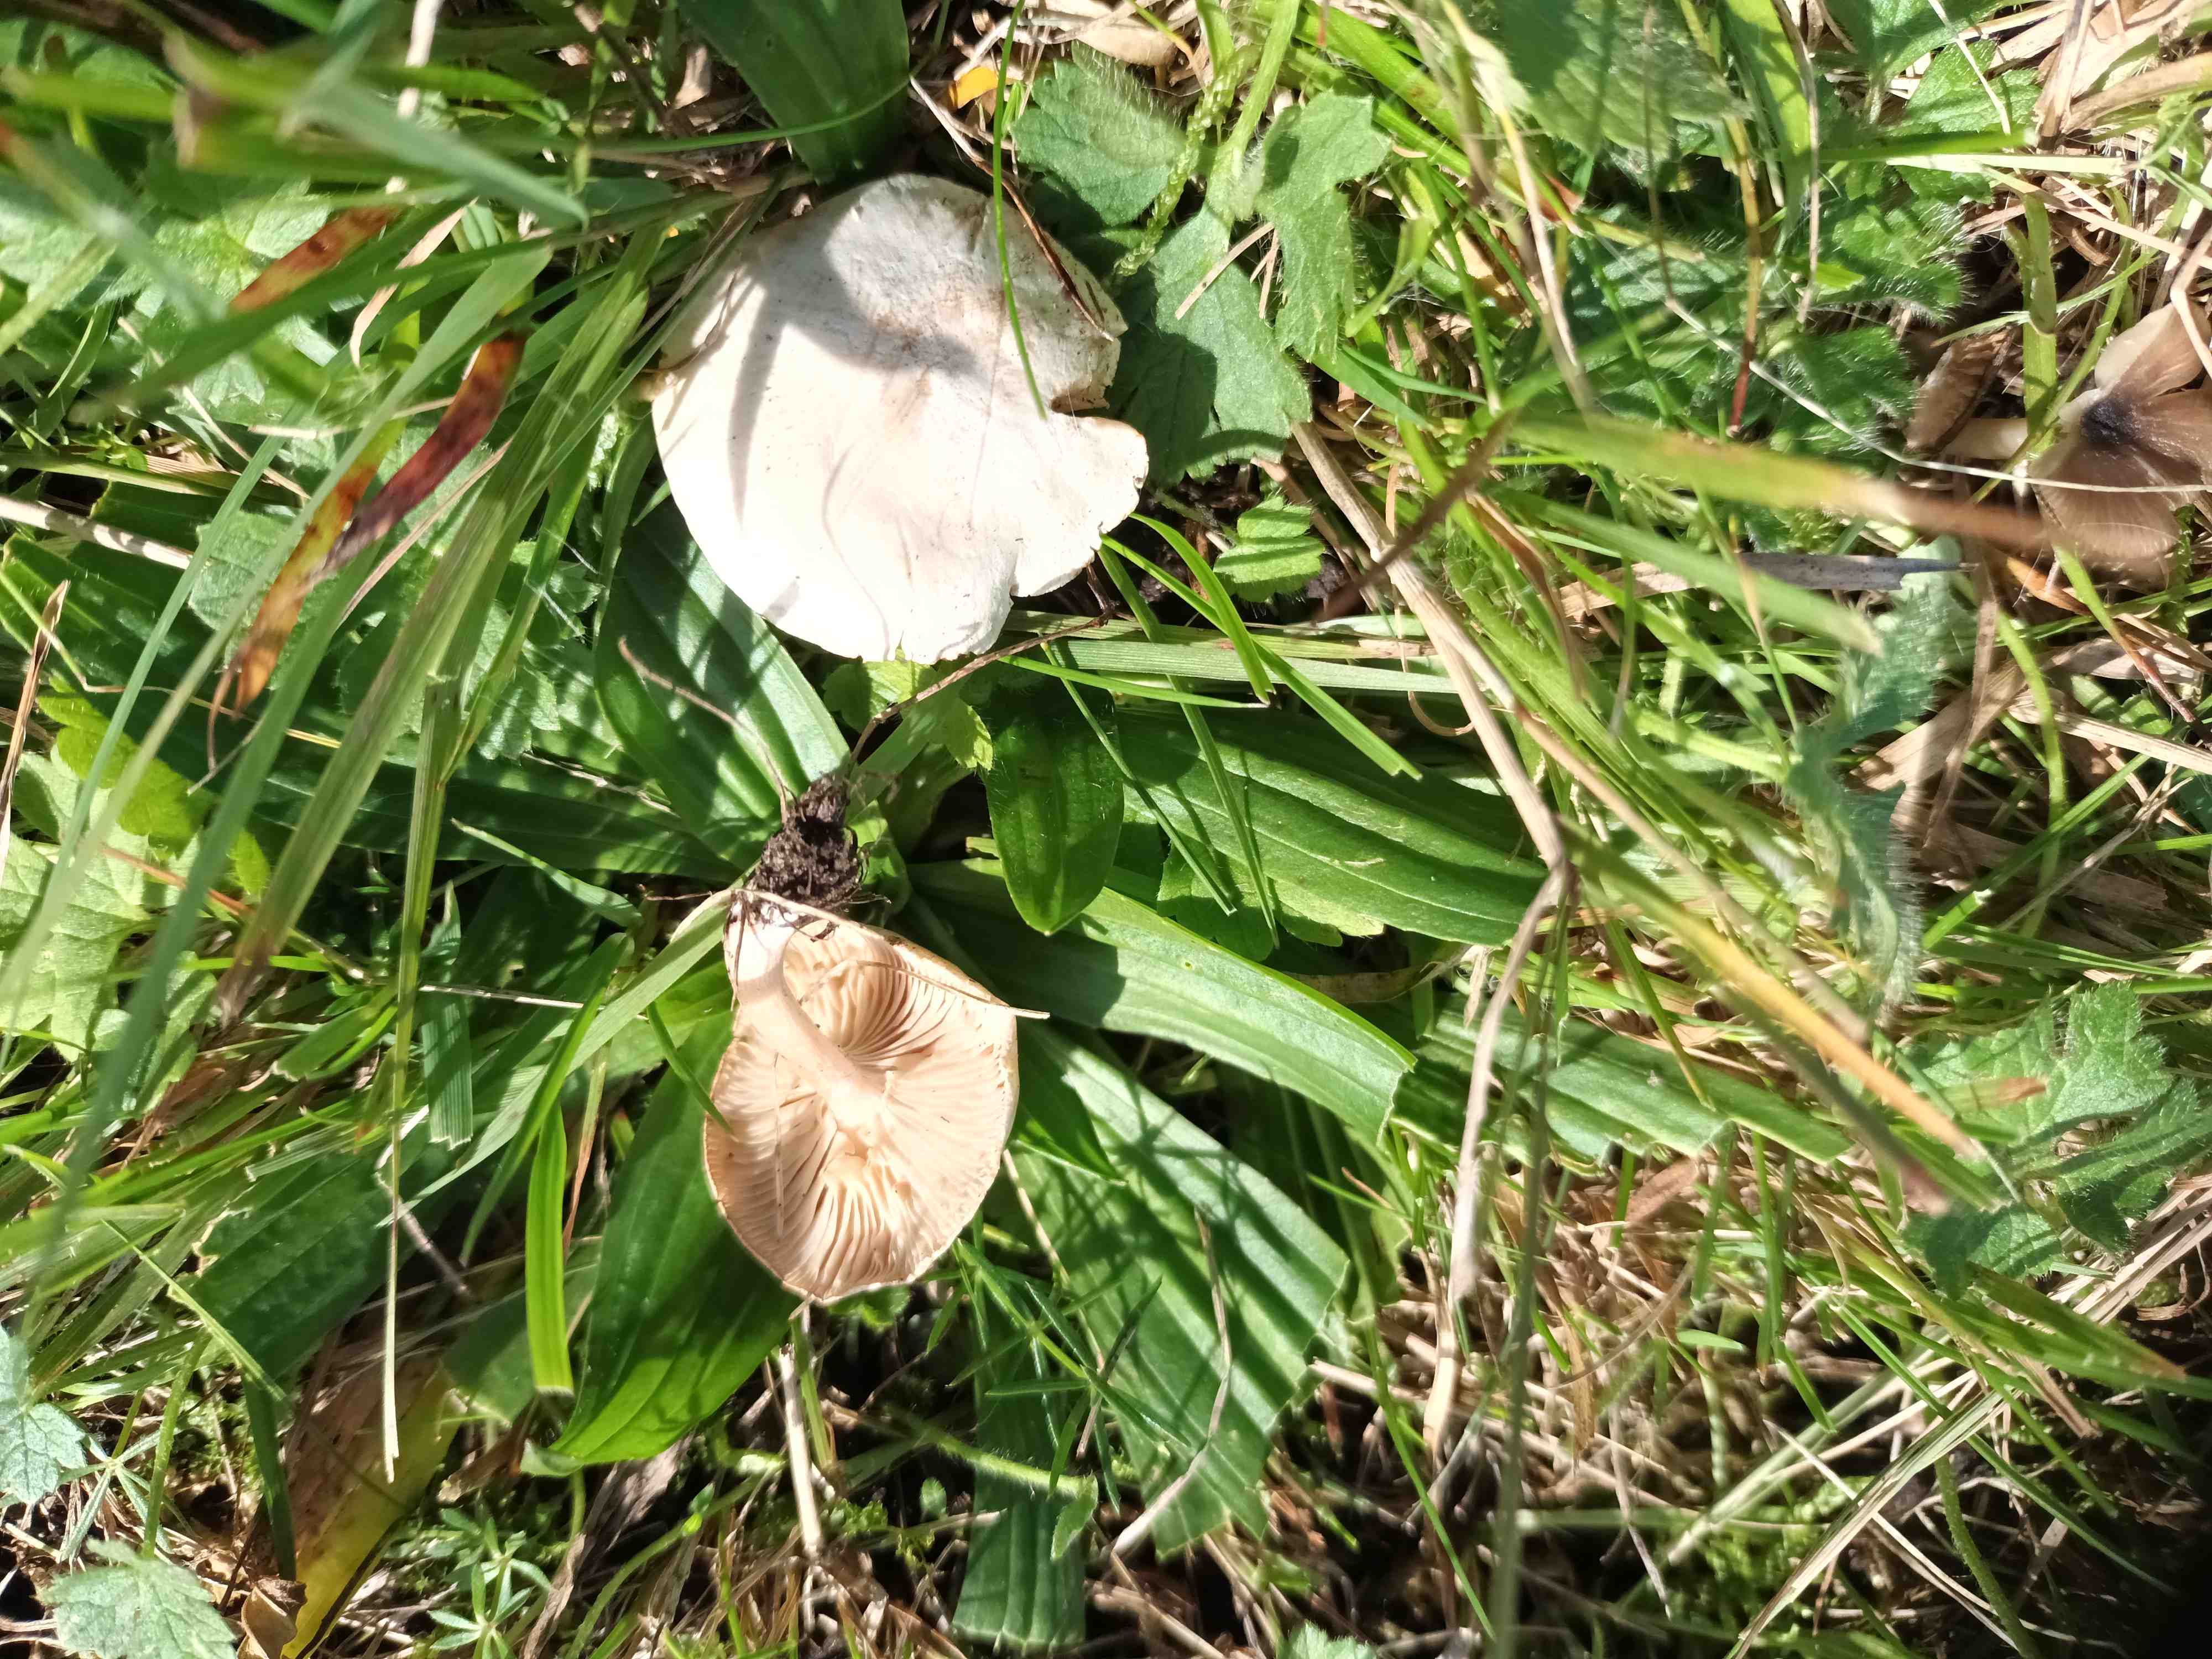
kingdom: Fungi
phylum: Basidiomycota
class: Agaricomycetes
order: Agaricales
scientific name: Agaricales
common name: champignonordenen
